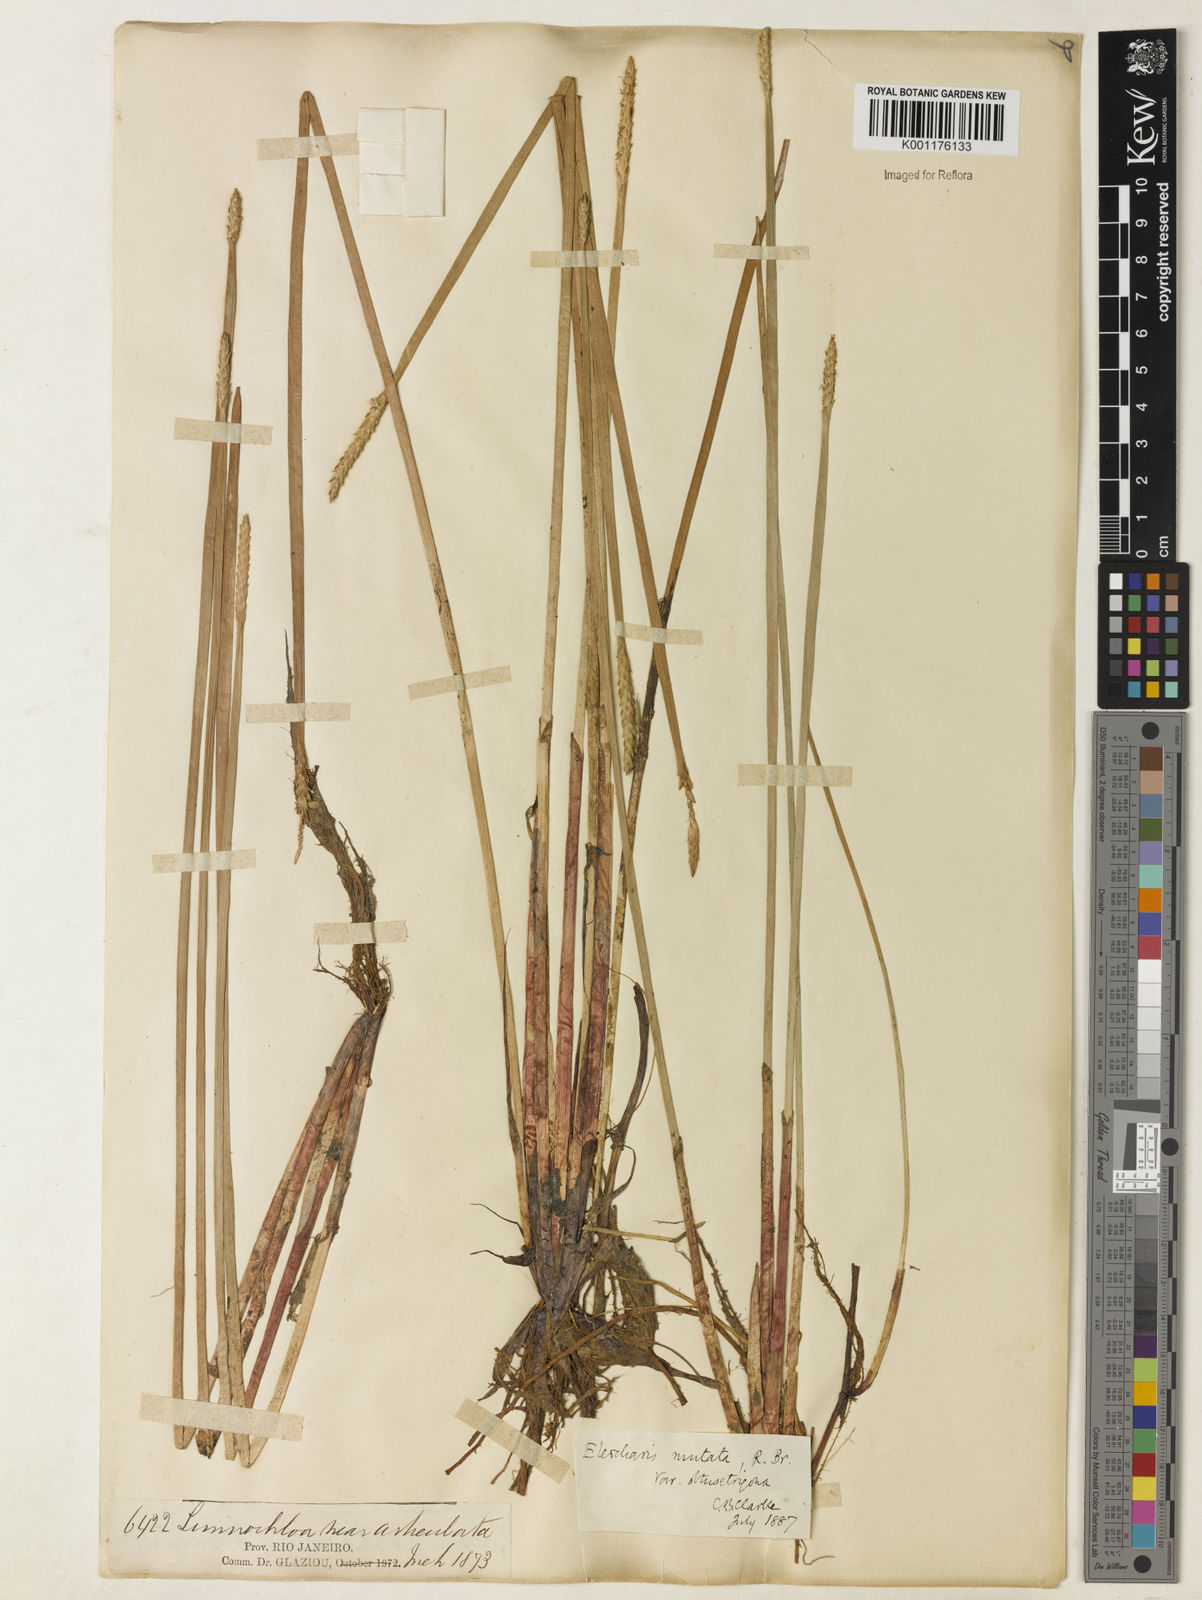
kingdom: Plantae
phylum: Tracheophyta
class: Liliopsida
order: Poales
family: Cyperaceae
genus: Eleocharis
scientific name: Eleocharis acutangula
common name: Acute spikerush
